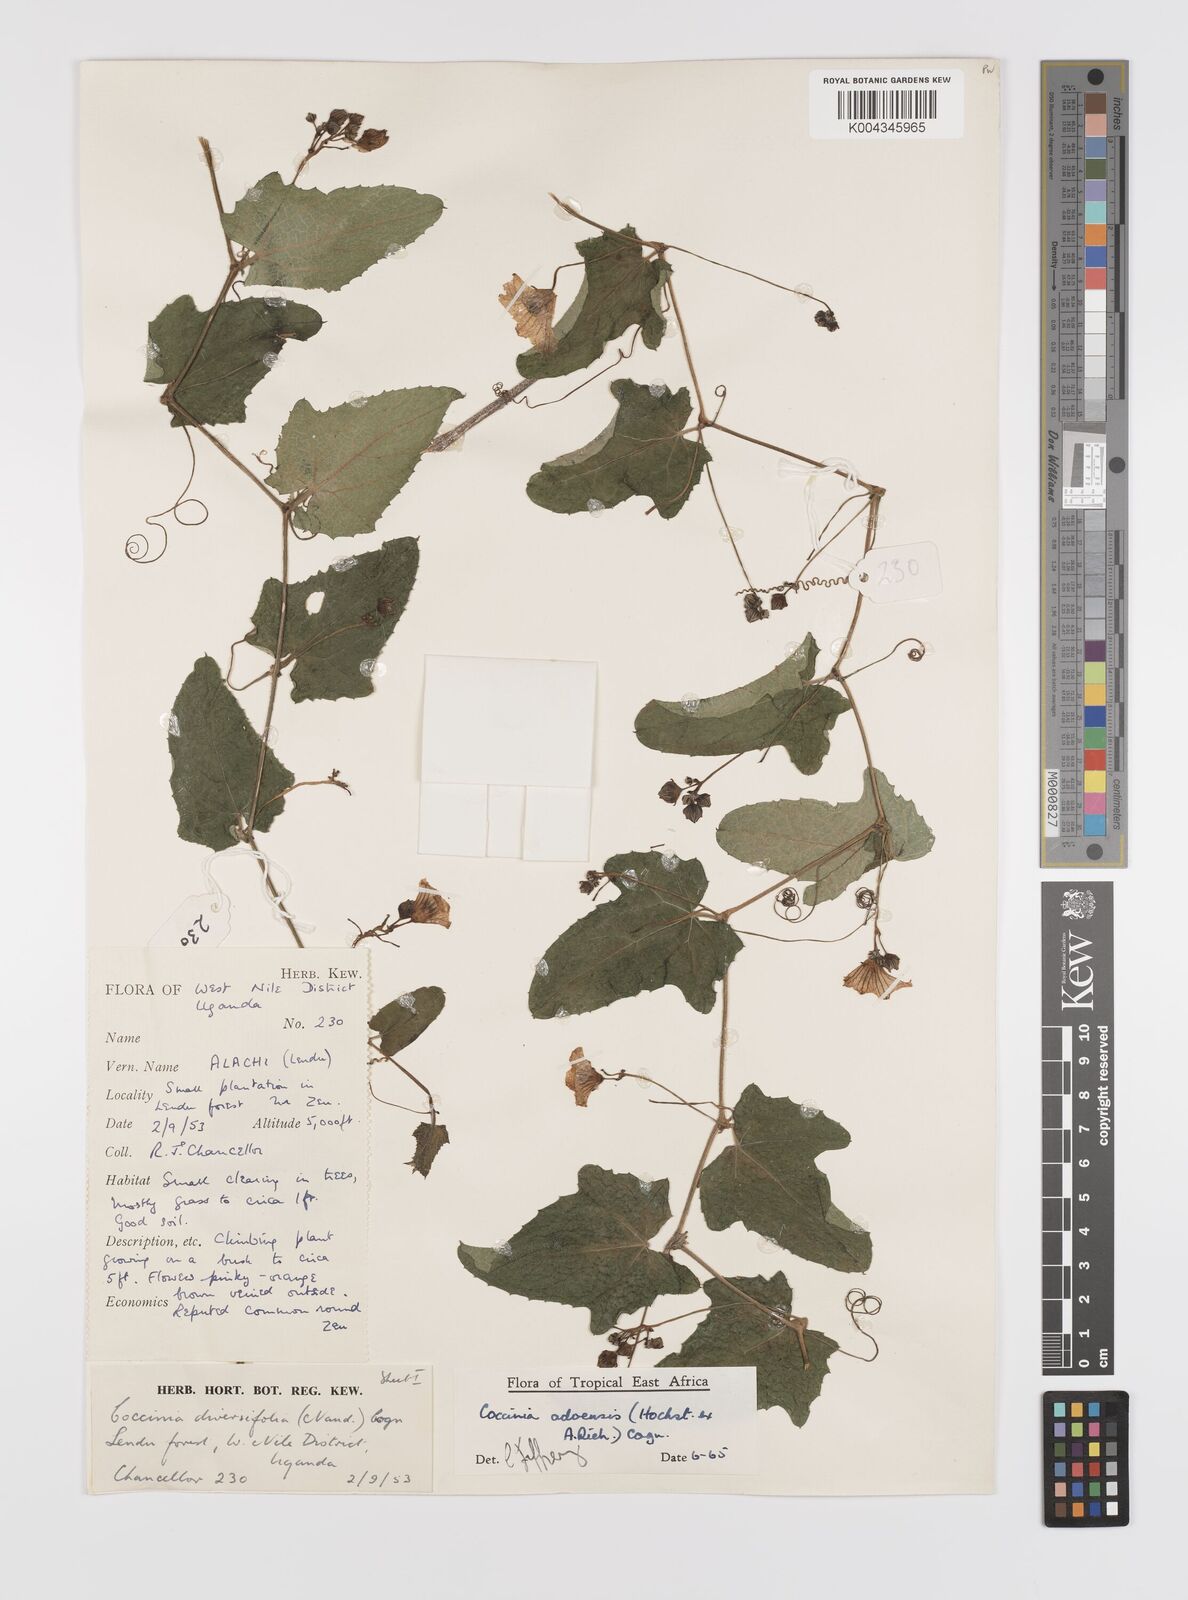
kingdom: Plantae
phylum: Tracheophyta
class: Magnoliopsida
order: Cucurbitales
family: Cucurbitaceae
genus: Coccinia
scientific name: Coccinia adoensis
